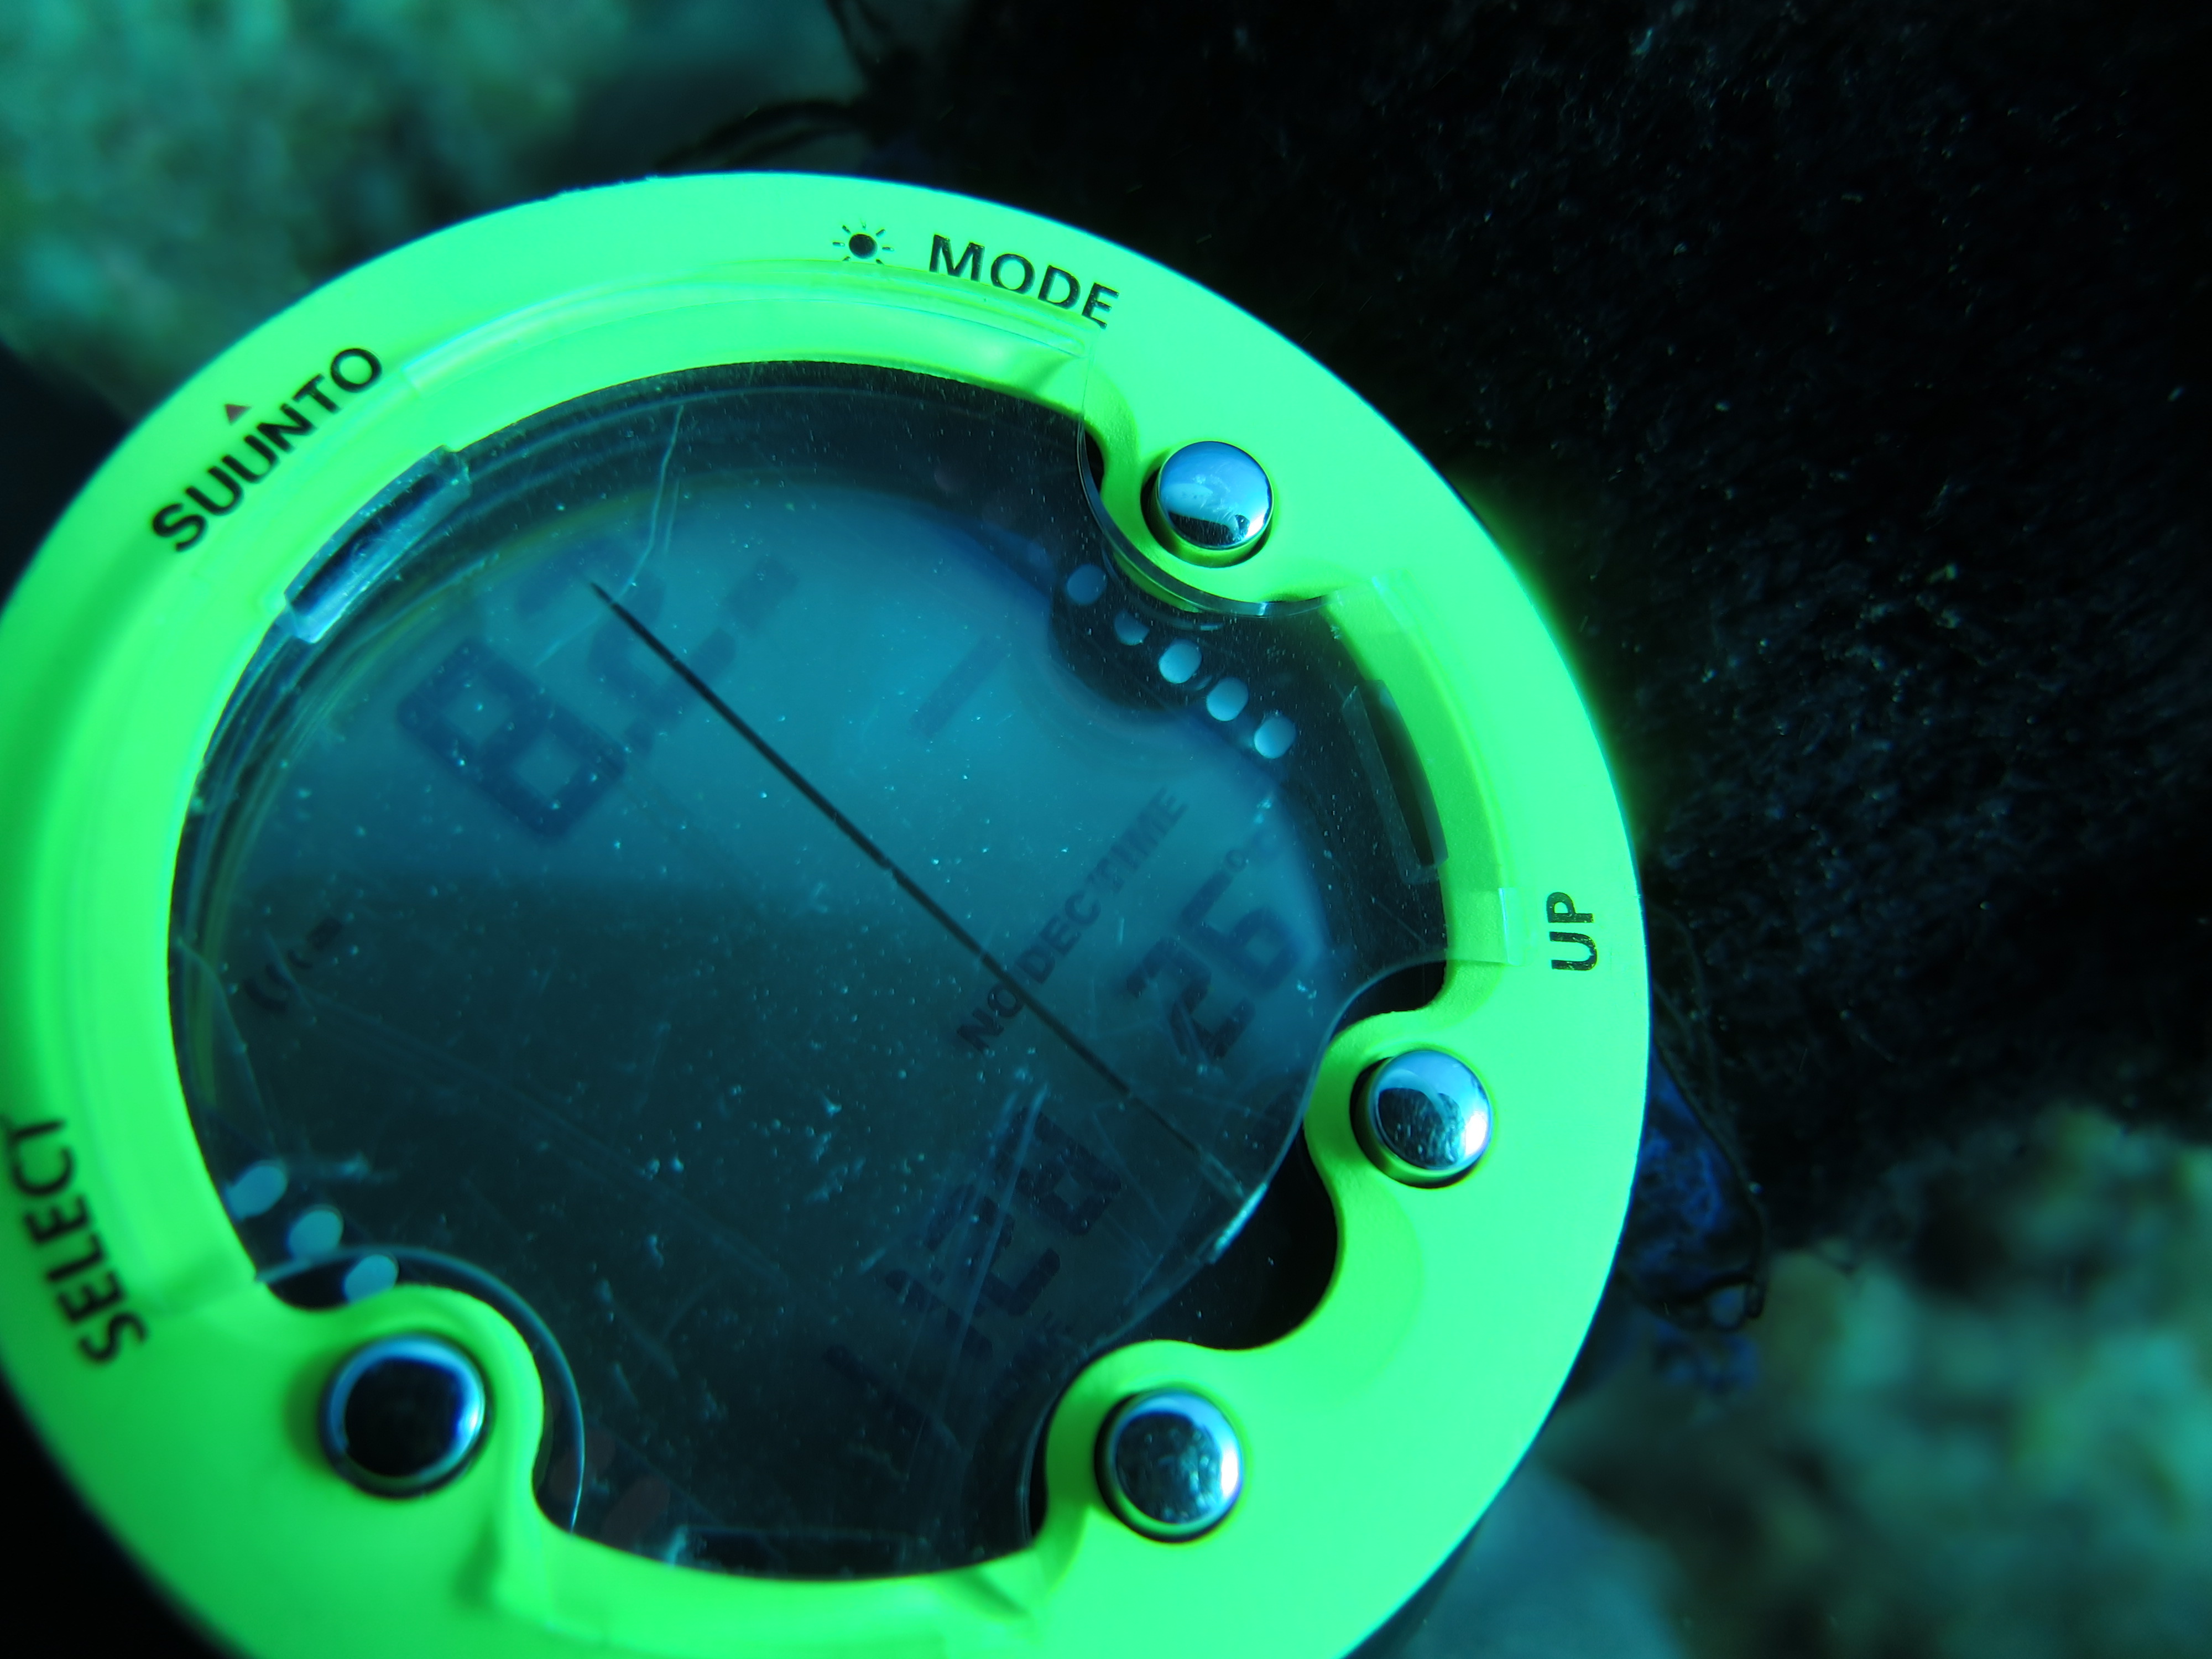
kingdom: Animalia
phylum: Cnidaria
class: Anthozoa
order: Malacalcyonacea
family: Gorgoniidae
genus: Gorgonia
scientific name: Gorgonia ventalina
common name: Common sea fan
